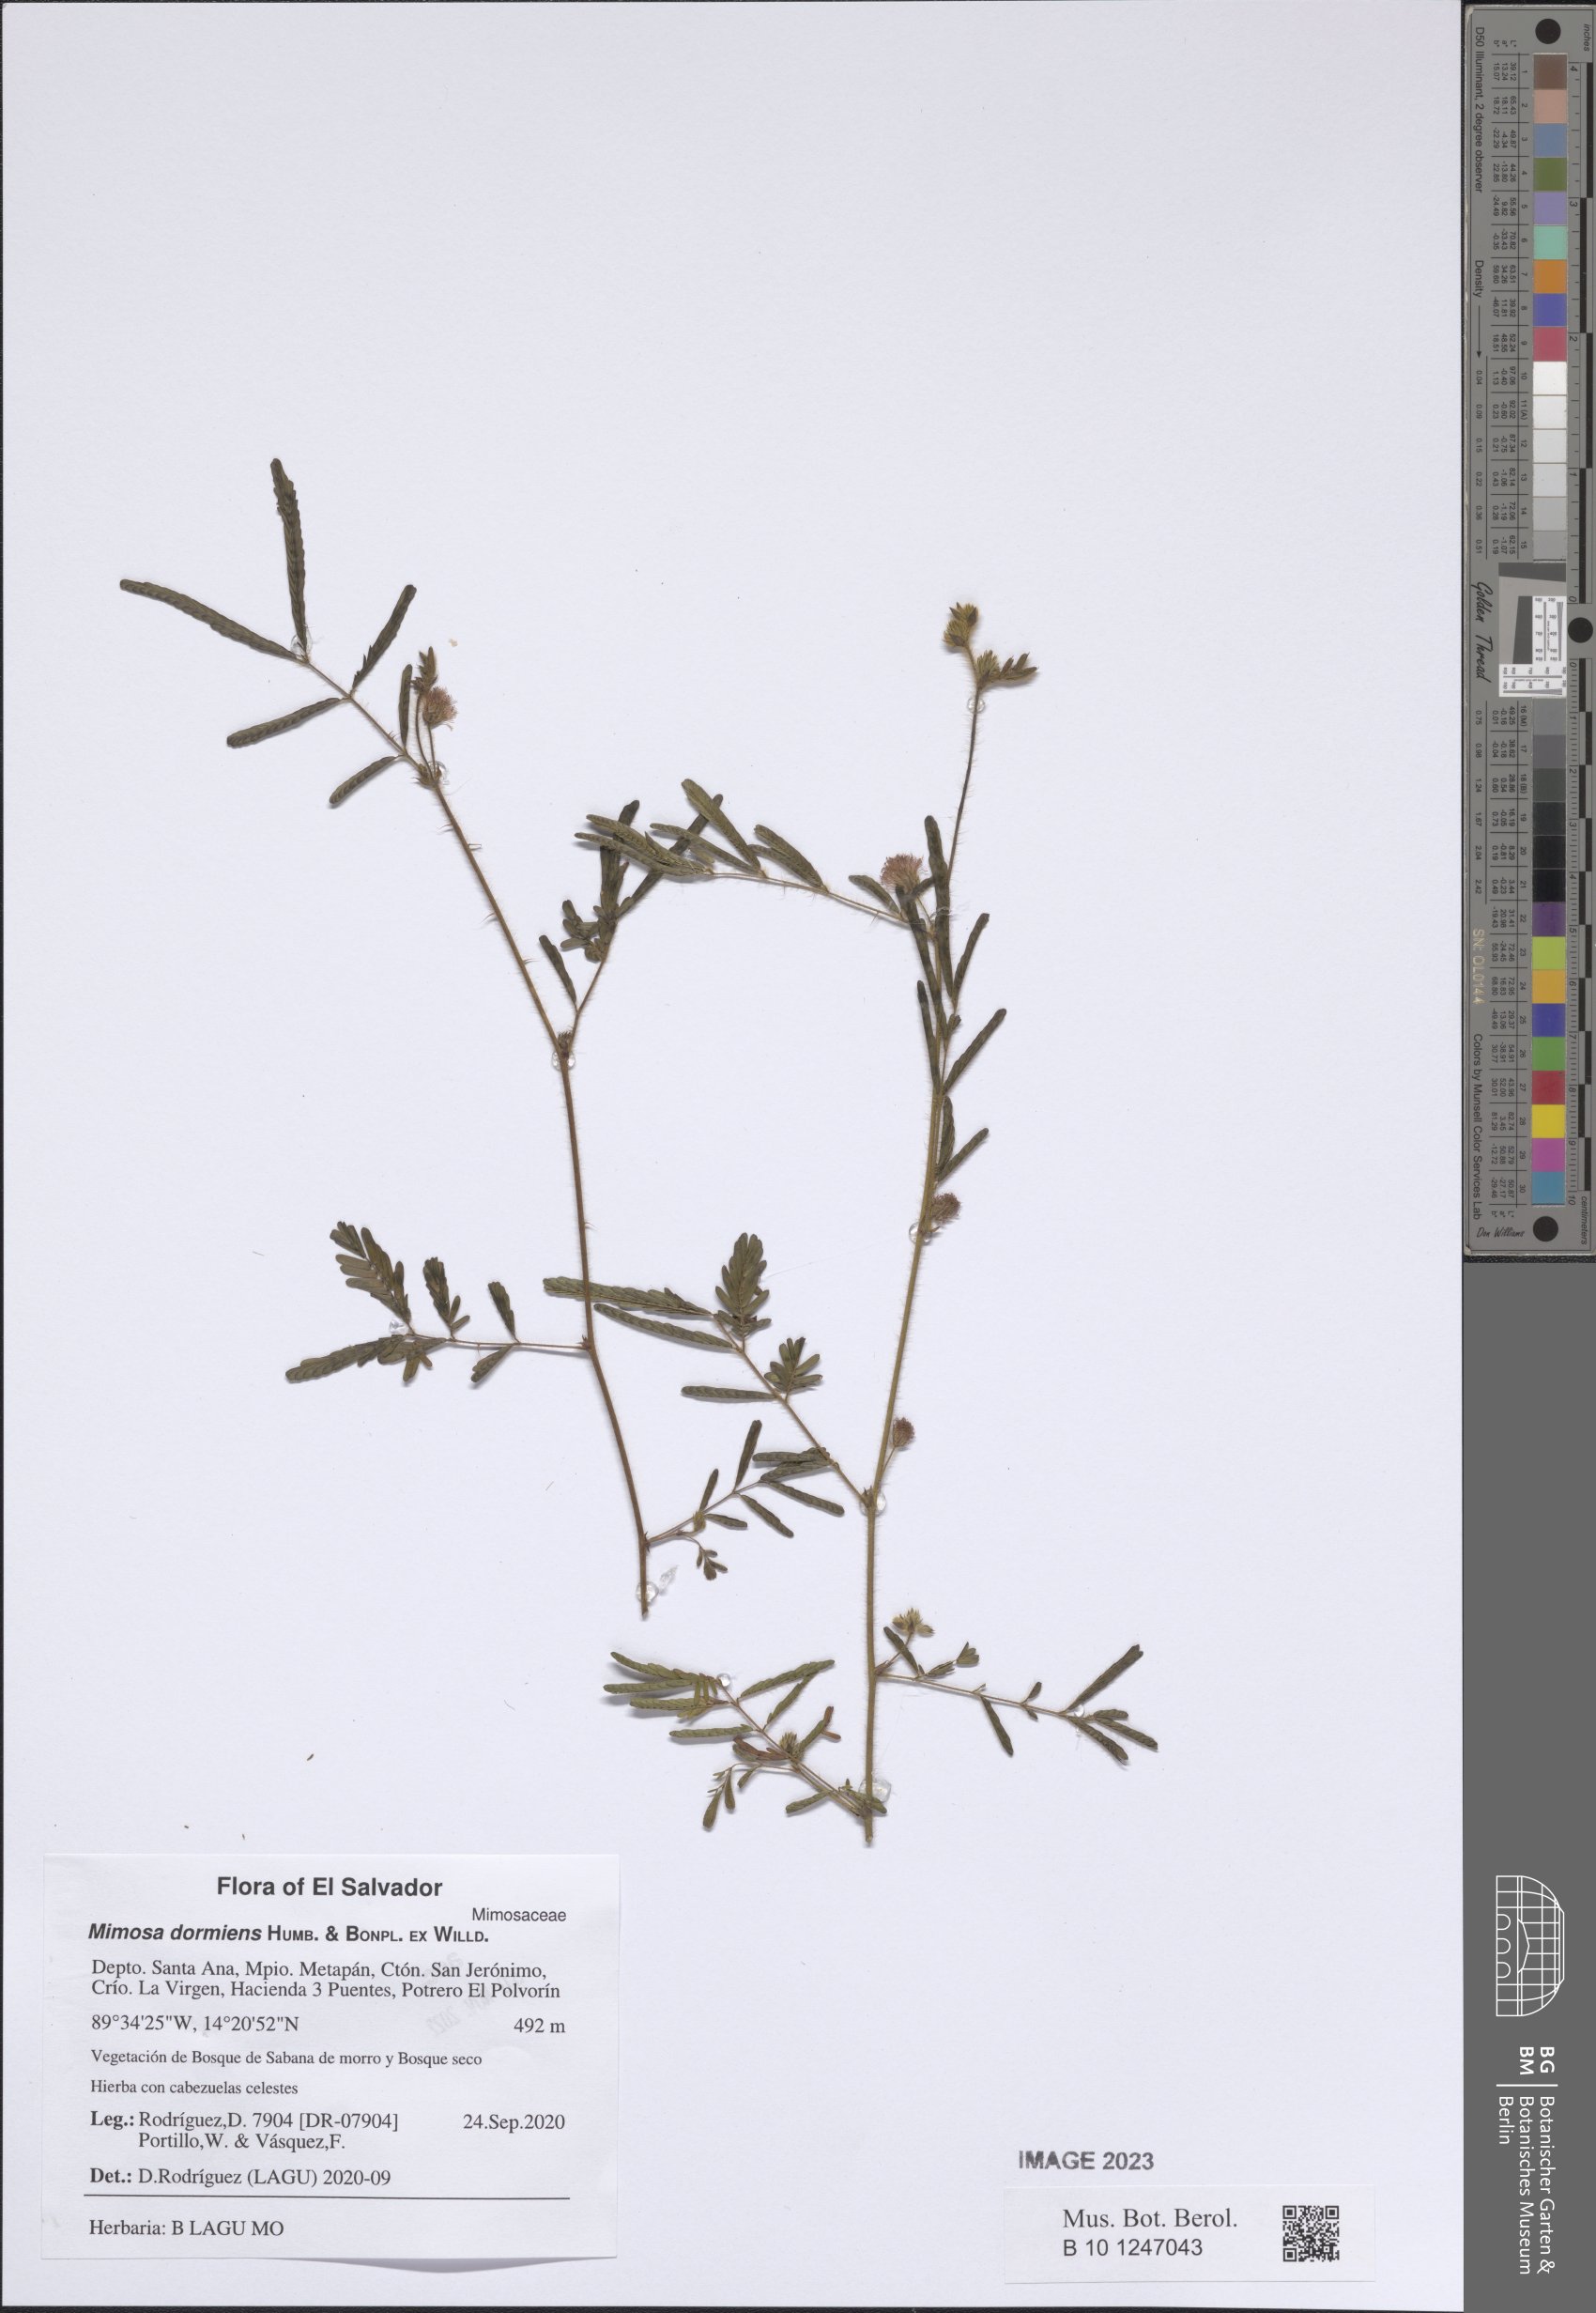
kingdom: Plantae
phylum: Tracheophyta
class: Magnoliopsida
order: Fabales
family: Fabaceae
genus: Mimosa
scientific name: Mimosa dormiens
